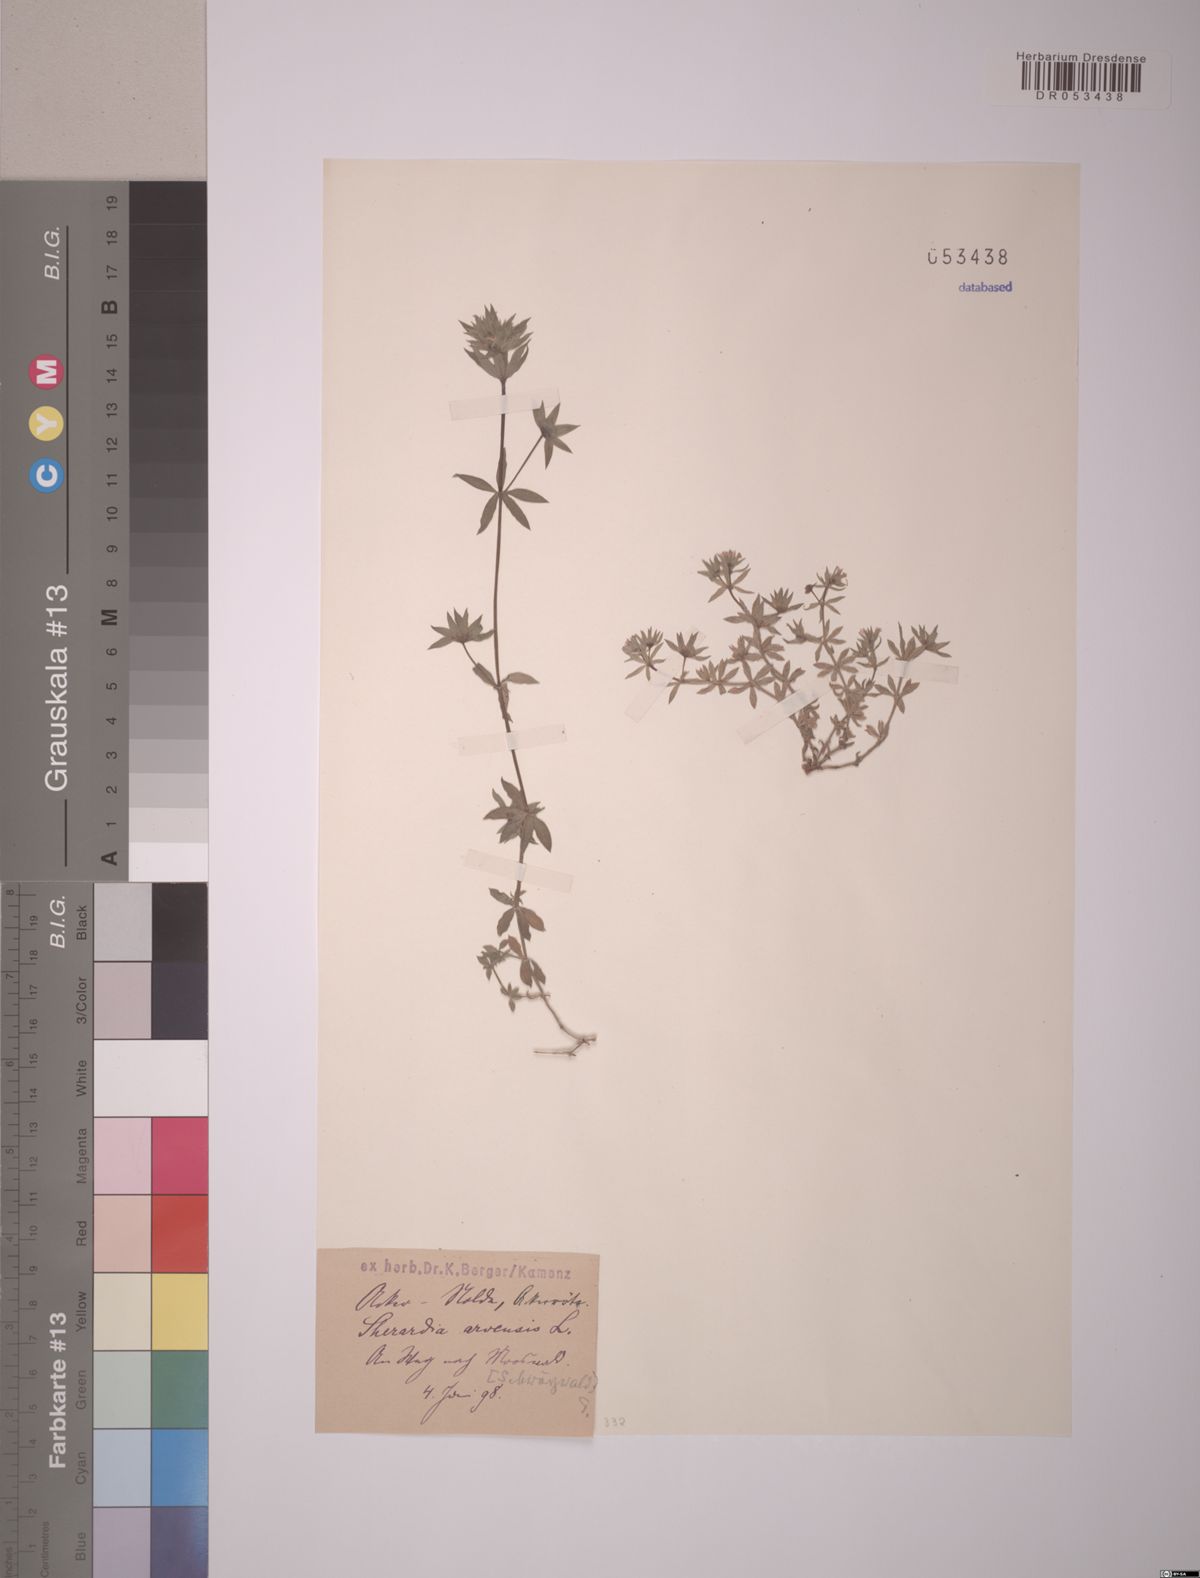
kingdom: Plantae
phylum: Tracheophyta
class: Magnoliopsida
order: Gentianales
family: Rubiaceae
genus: Sherardia
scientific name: Sherardia arvensis
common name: Field madder
